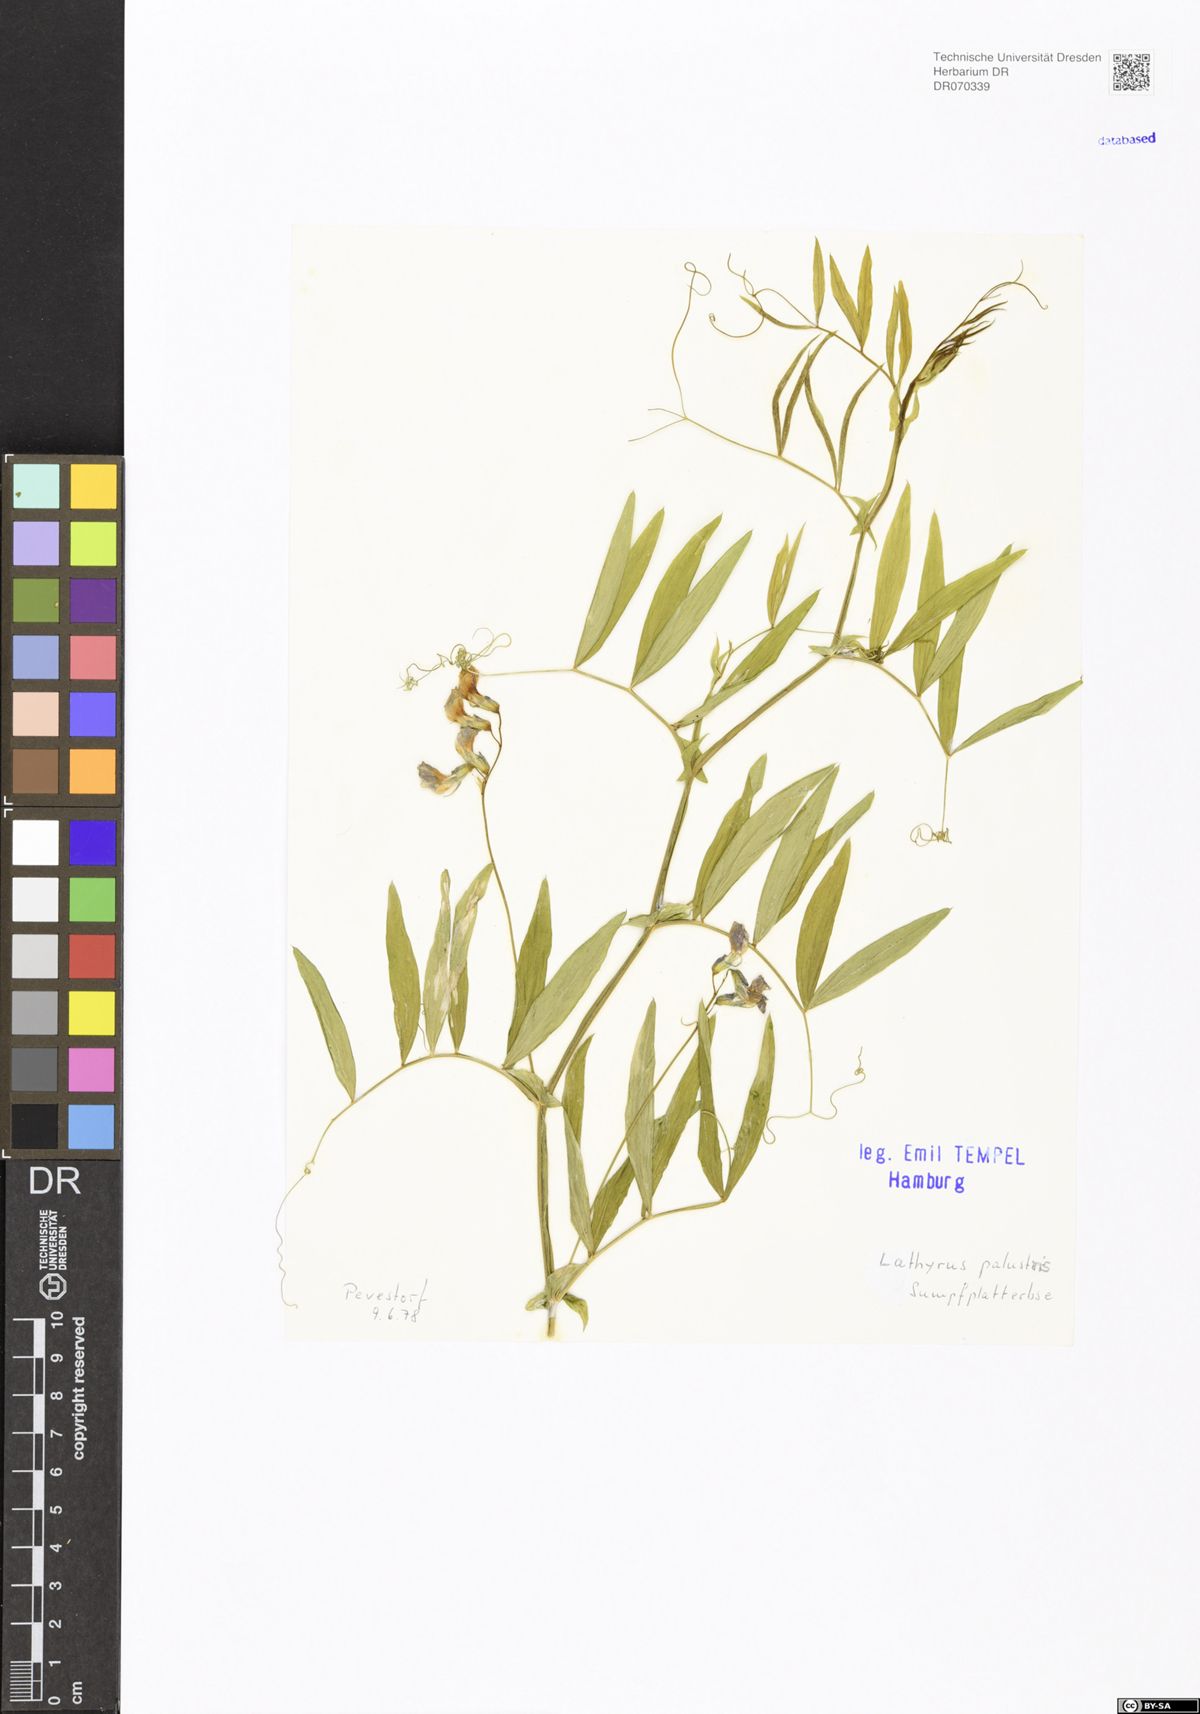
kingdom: Plantae
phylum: Tracheophyta
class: Magnoliopsida
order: Fabales
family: Fabaceae
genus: Lathyrus
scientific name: Lathyrus palustris
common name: Marsh pea
